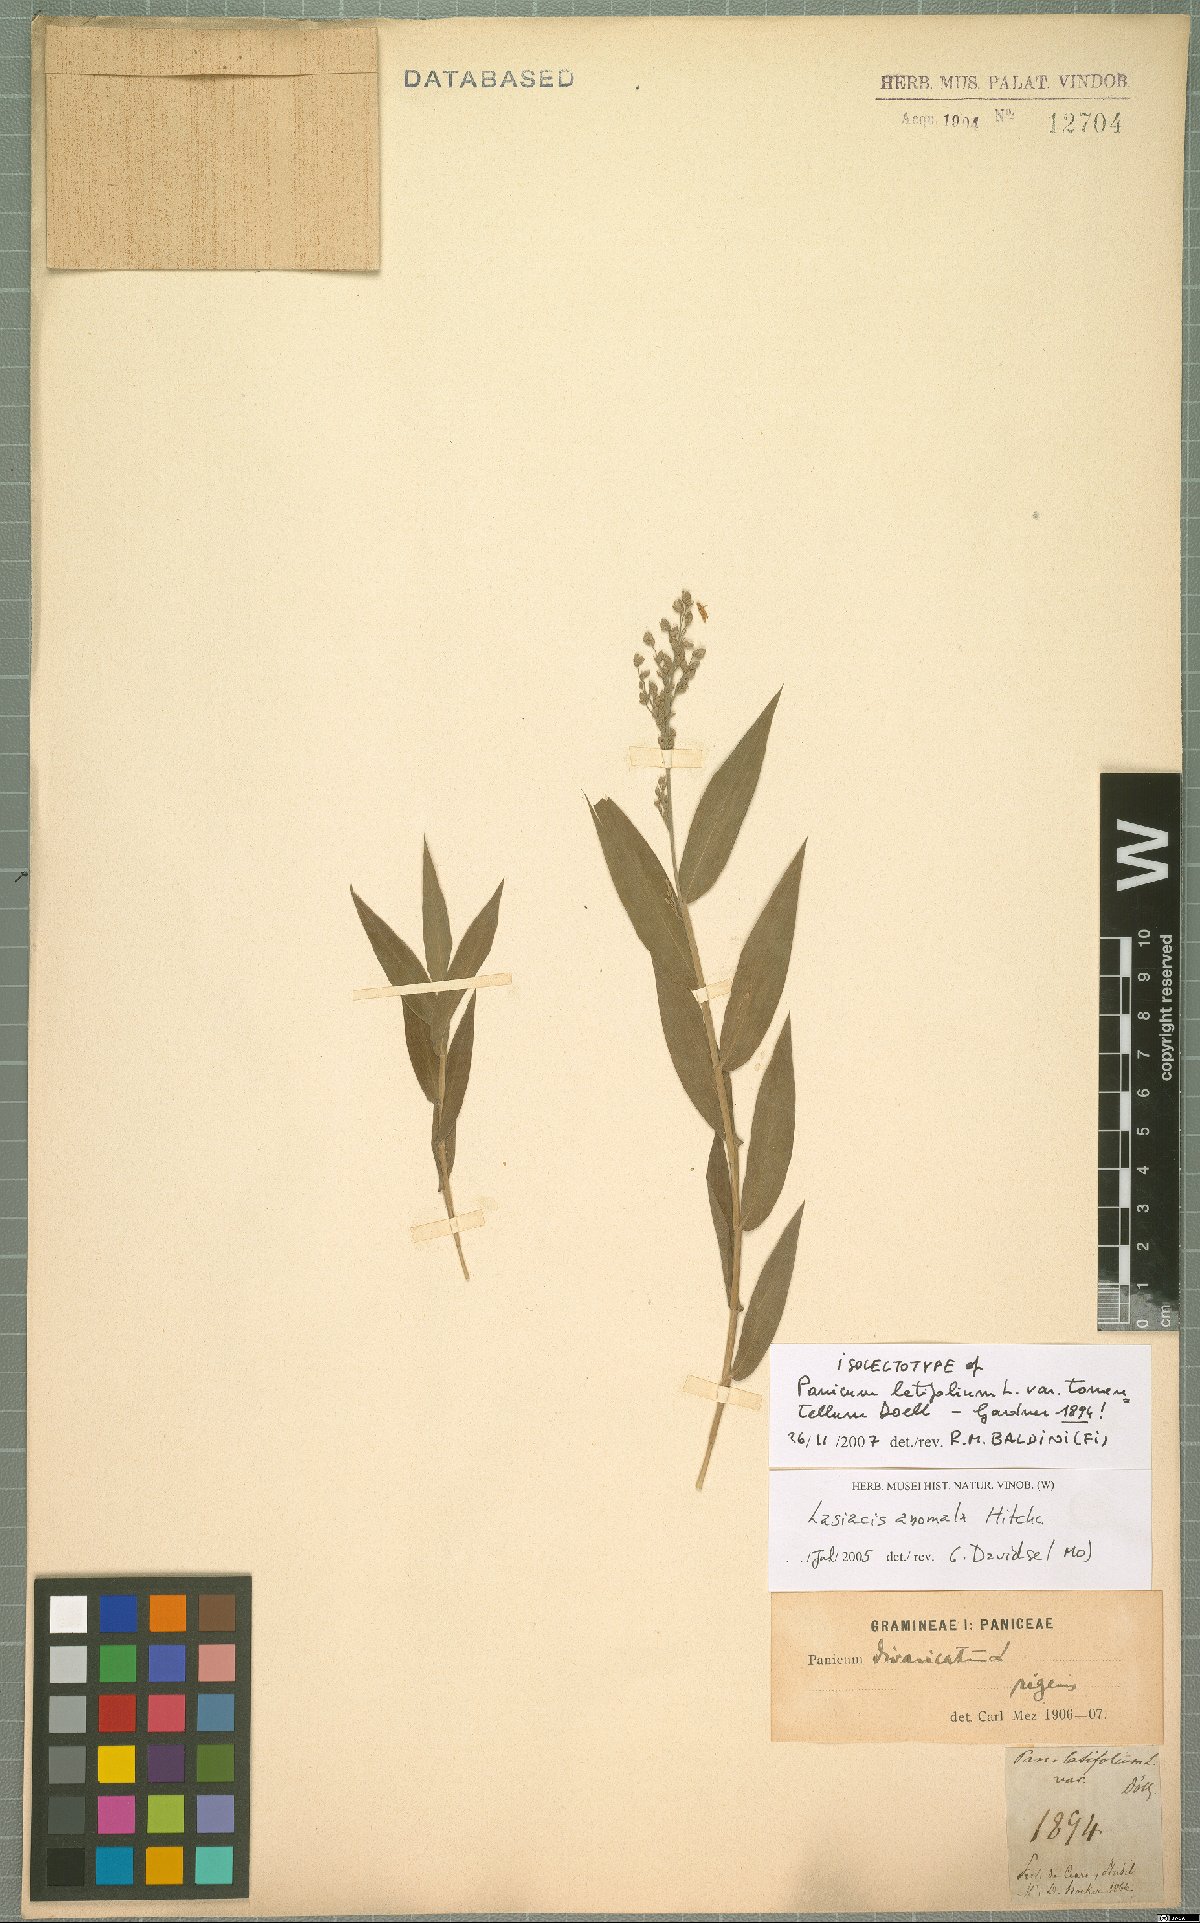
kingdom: Plantae
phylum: Tracheophyta
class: Liliopsida
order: Poales
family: Poaceae
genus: Lasiacis
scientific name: Lasiacis anomala
